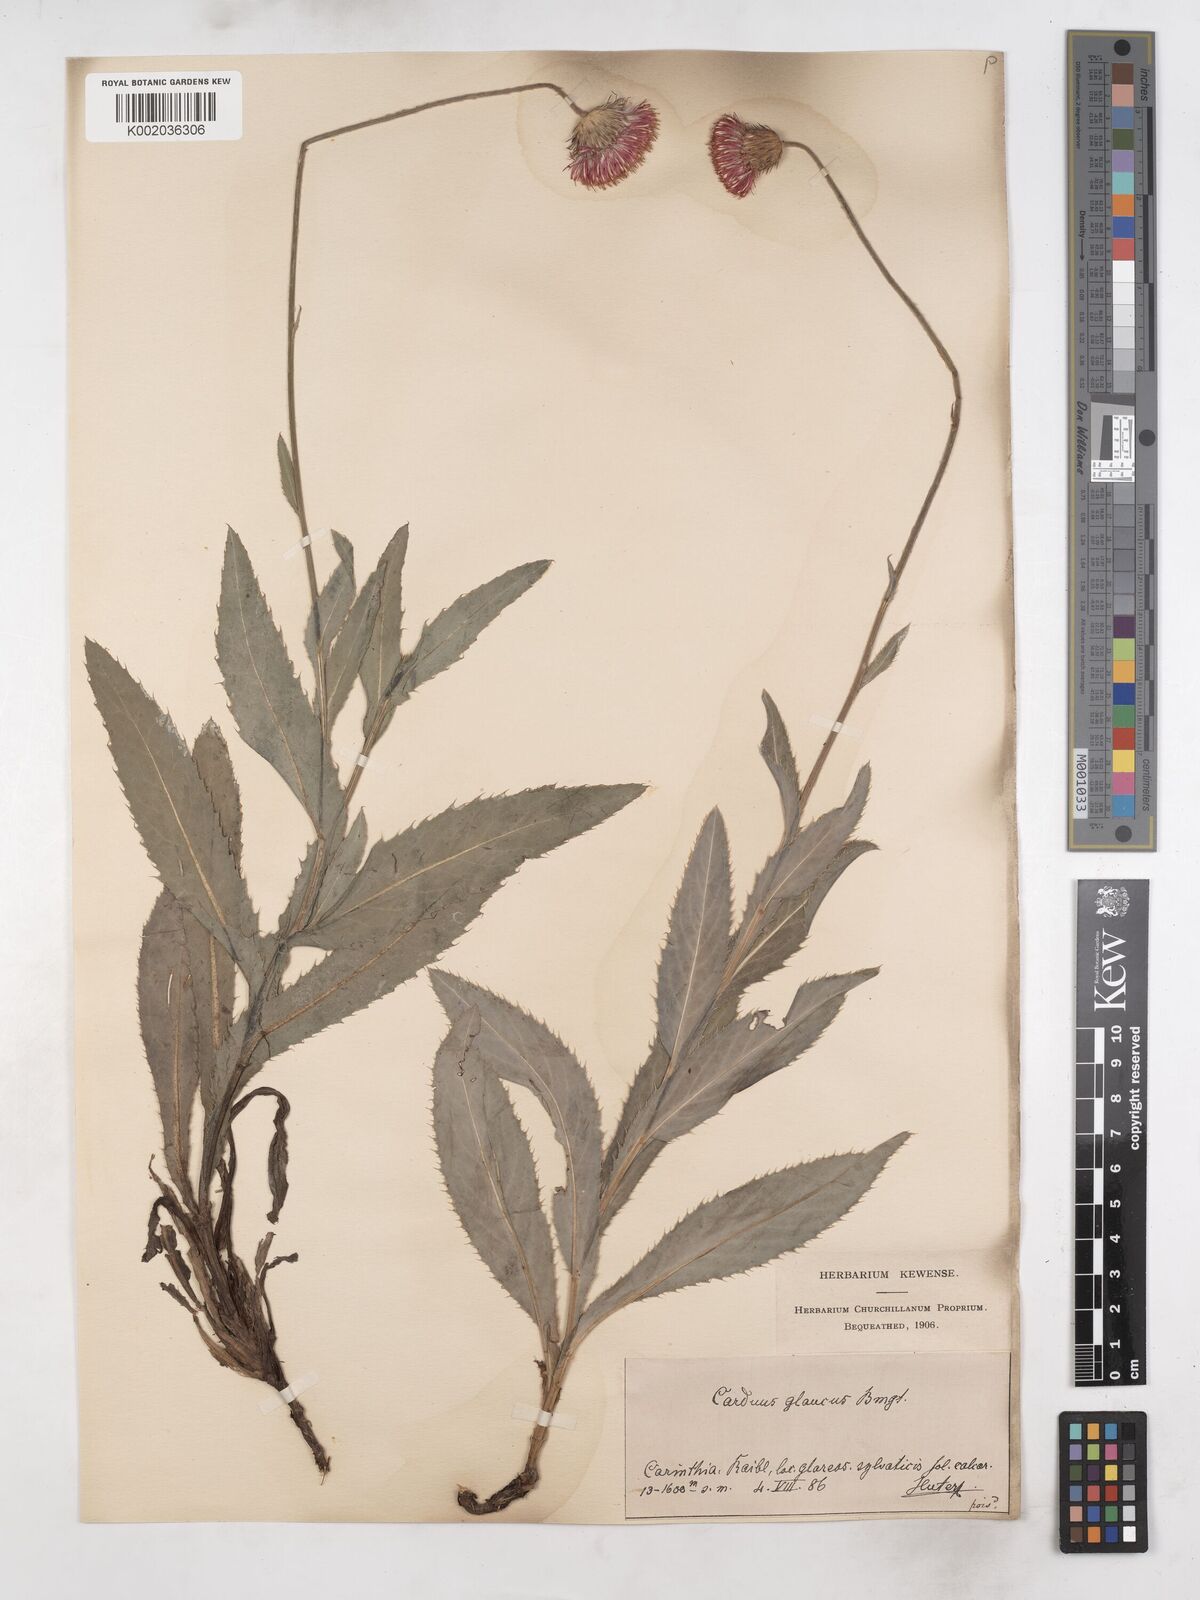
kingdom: Plantae
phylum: Tracheophyta
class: Magnoliopsida
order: Asterales
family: Asteraceae
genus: Carduus
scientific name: Carduus defloratus
